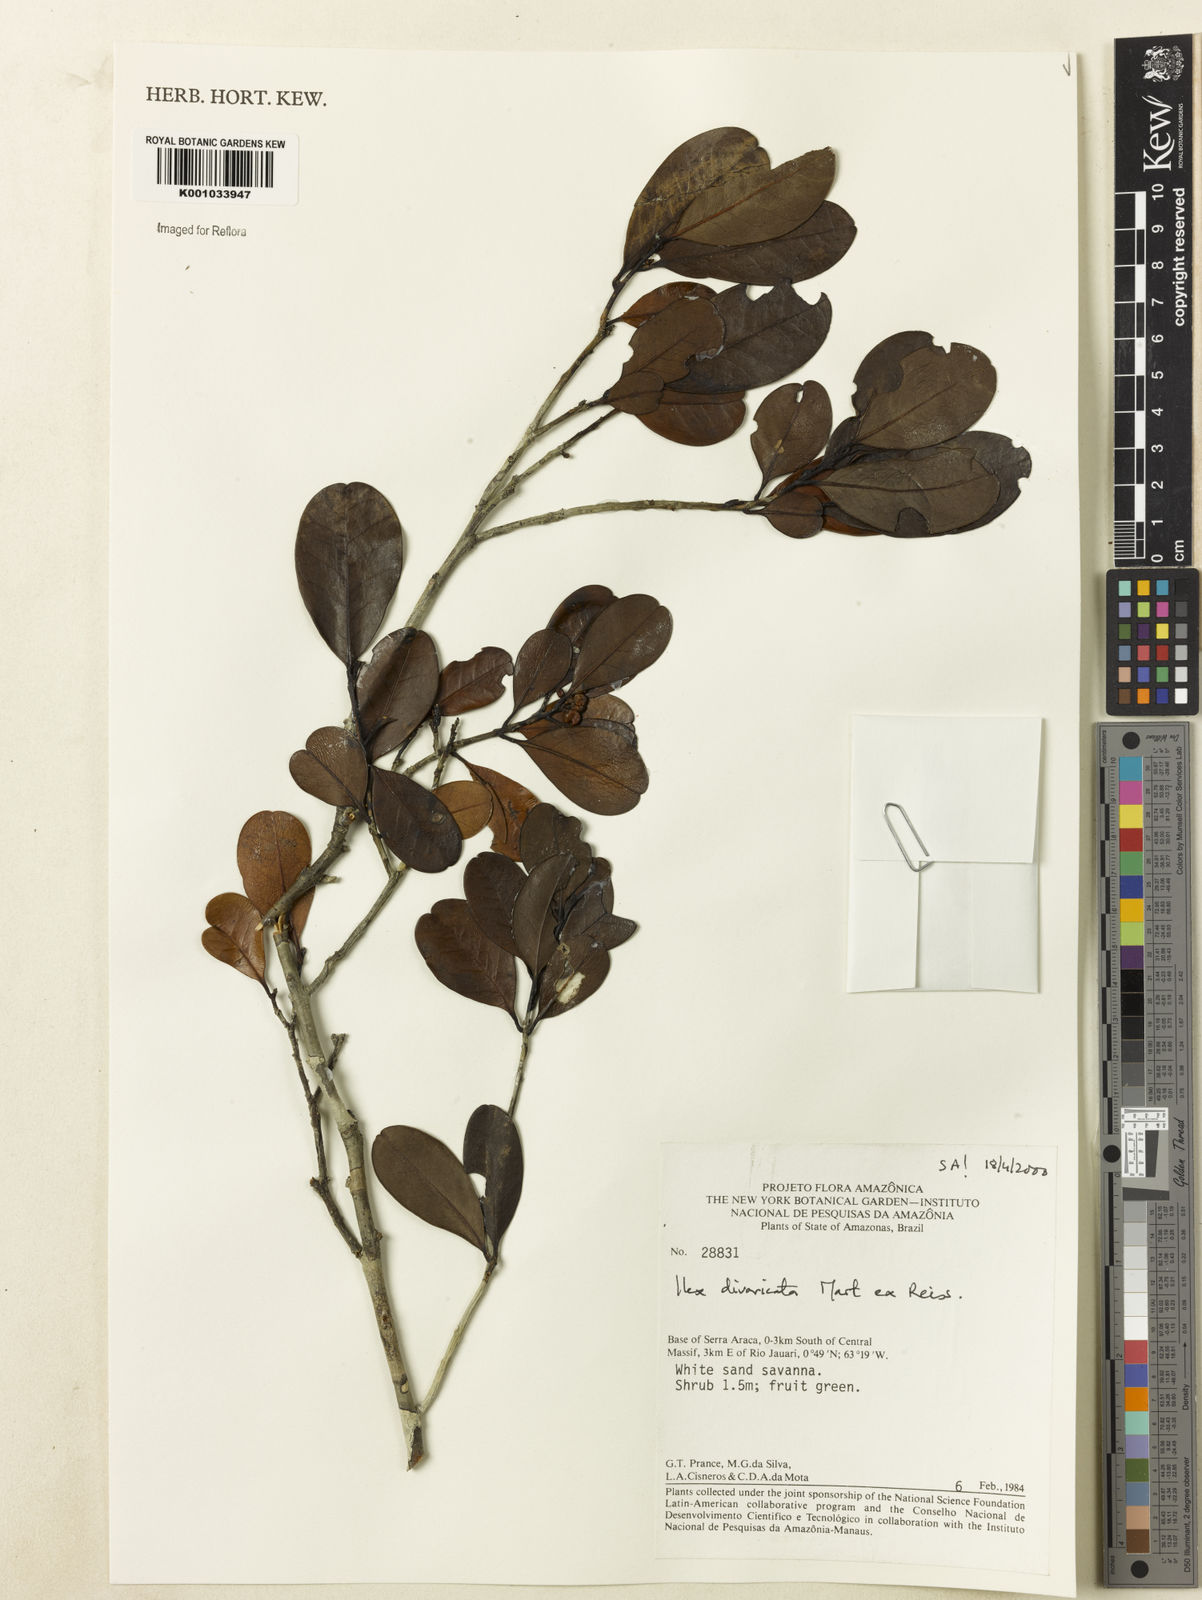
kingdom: Plantae
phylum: Tracheophyta
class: Magnoliopsida
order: Aquifoliales
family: Aquifoliaceae
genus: Ilex
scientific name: Ilex divaricata
